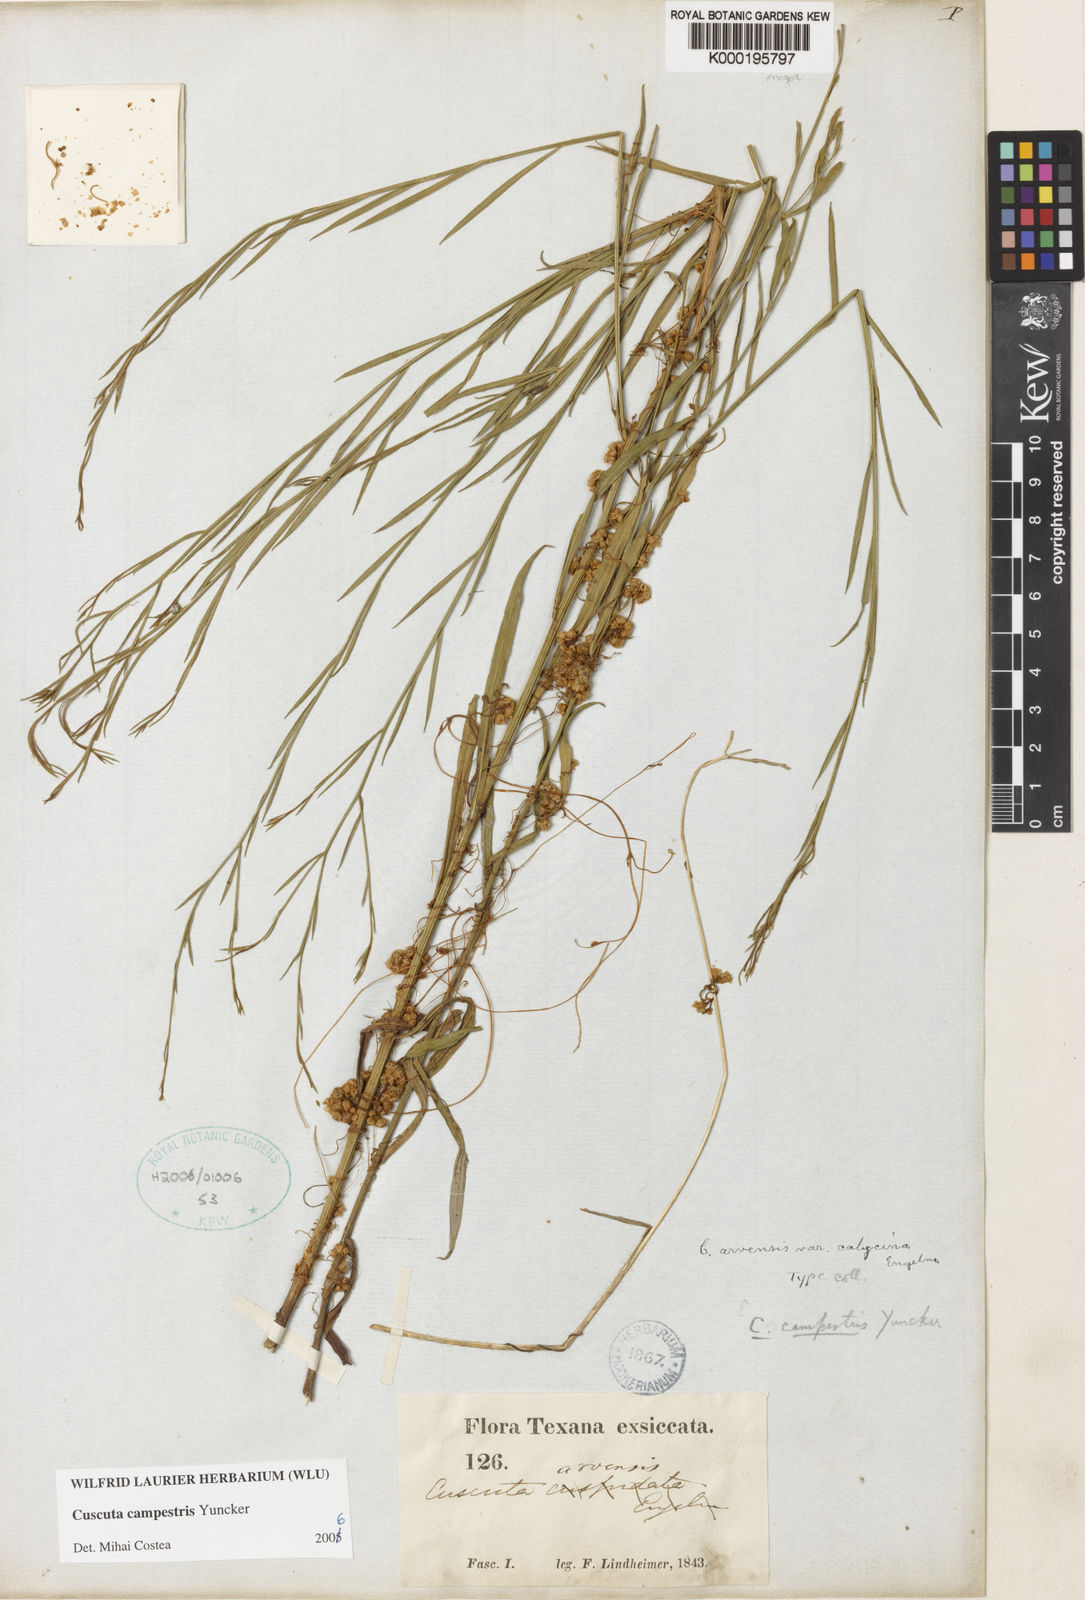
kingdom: Plantae
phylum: Tracheophyta
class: Magnoliopsida
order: Solanales
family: Convolvulaceae
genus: Cuscuta
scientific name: Cuscuta campestris
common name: Yellow dodder
